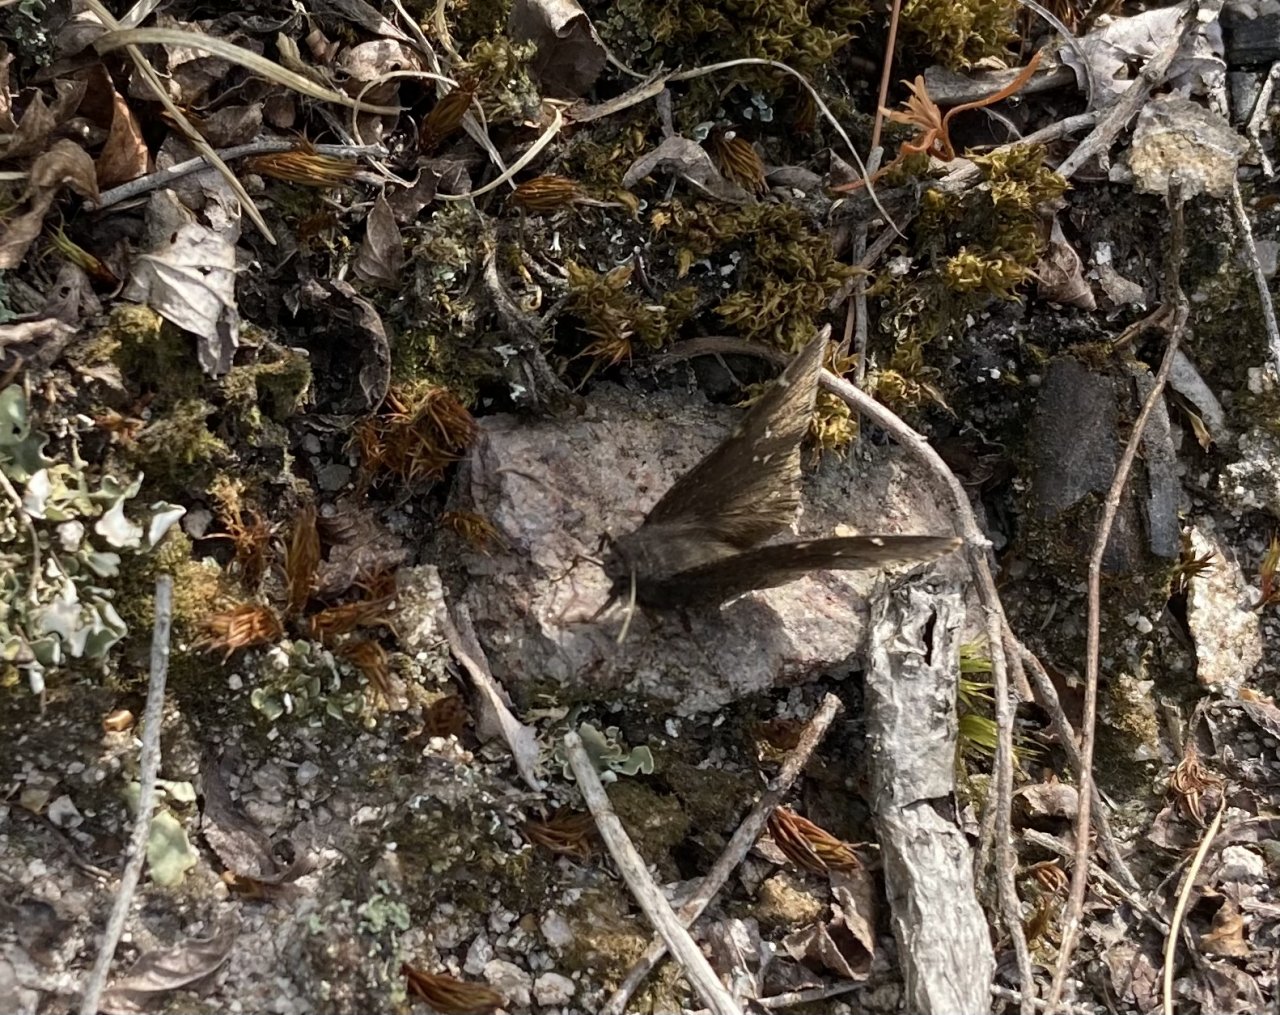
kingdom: Animalia
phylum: Arthropoda
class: Insecta
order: Lepidoptera
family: Hesperiidae
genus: Autochton
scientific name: Autochton
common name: Northern Cloudywing
